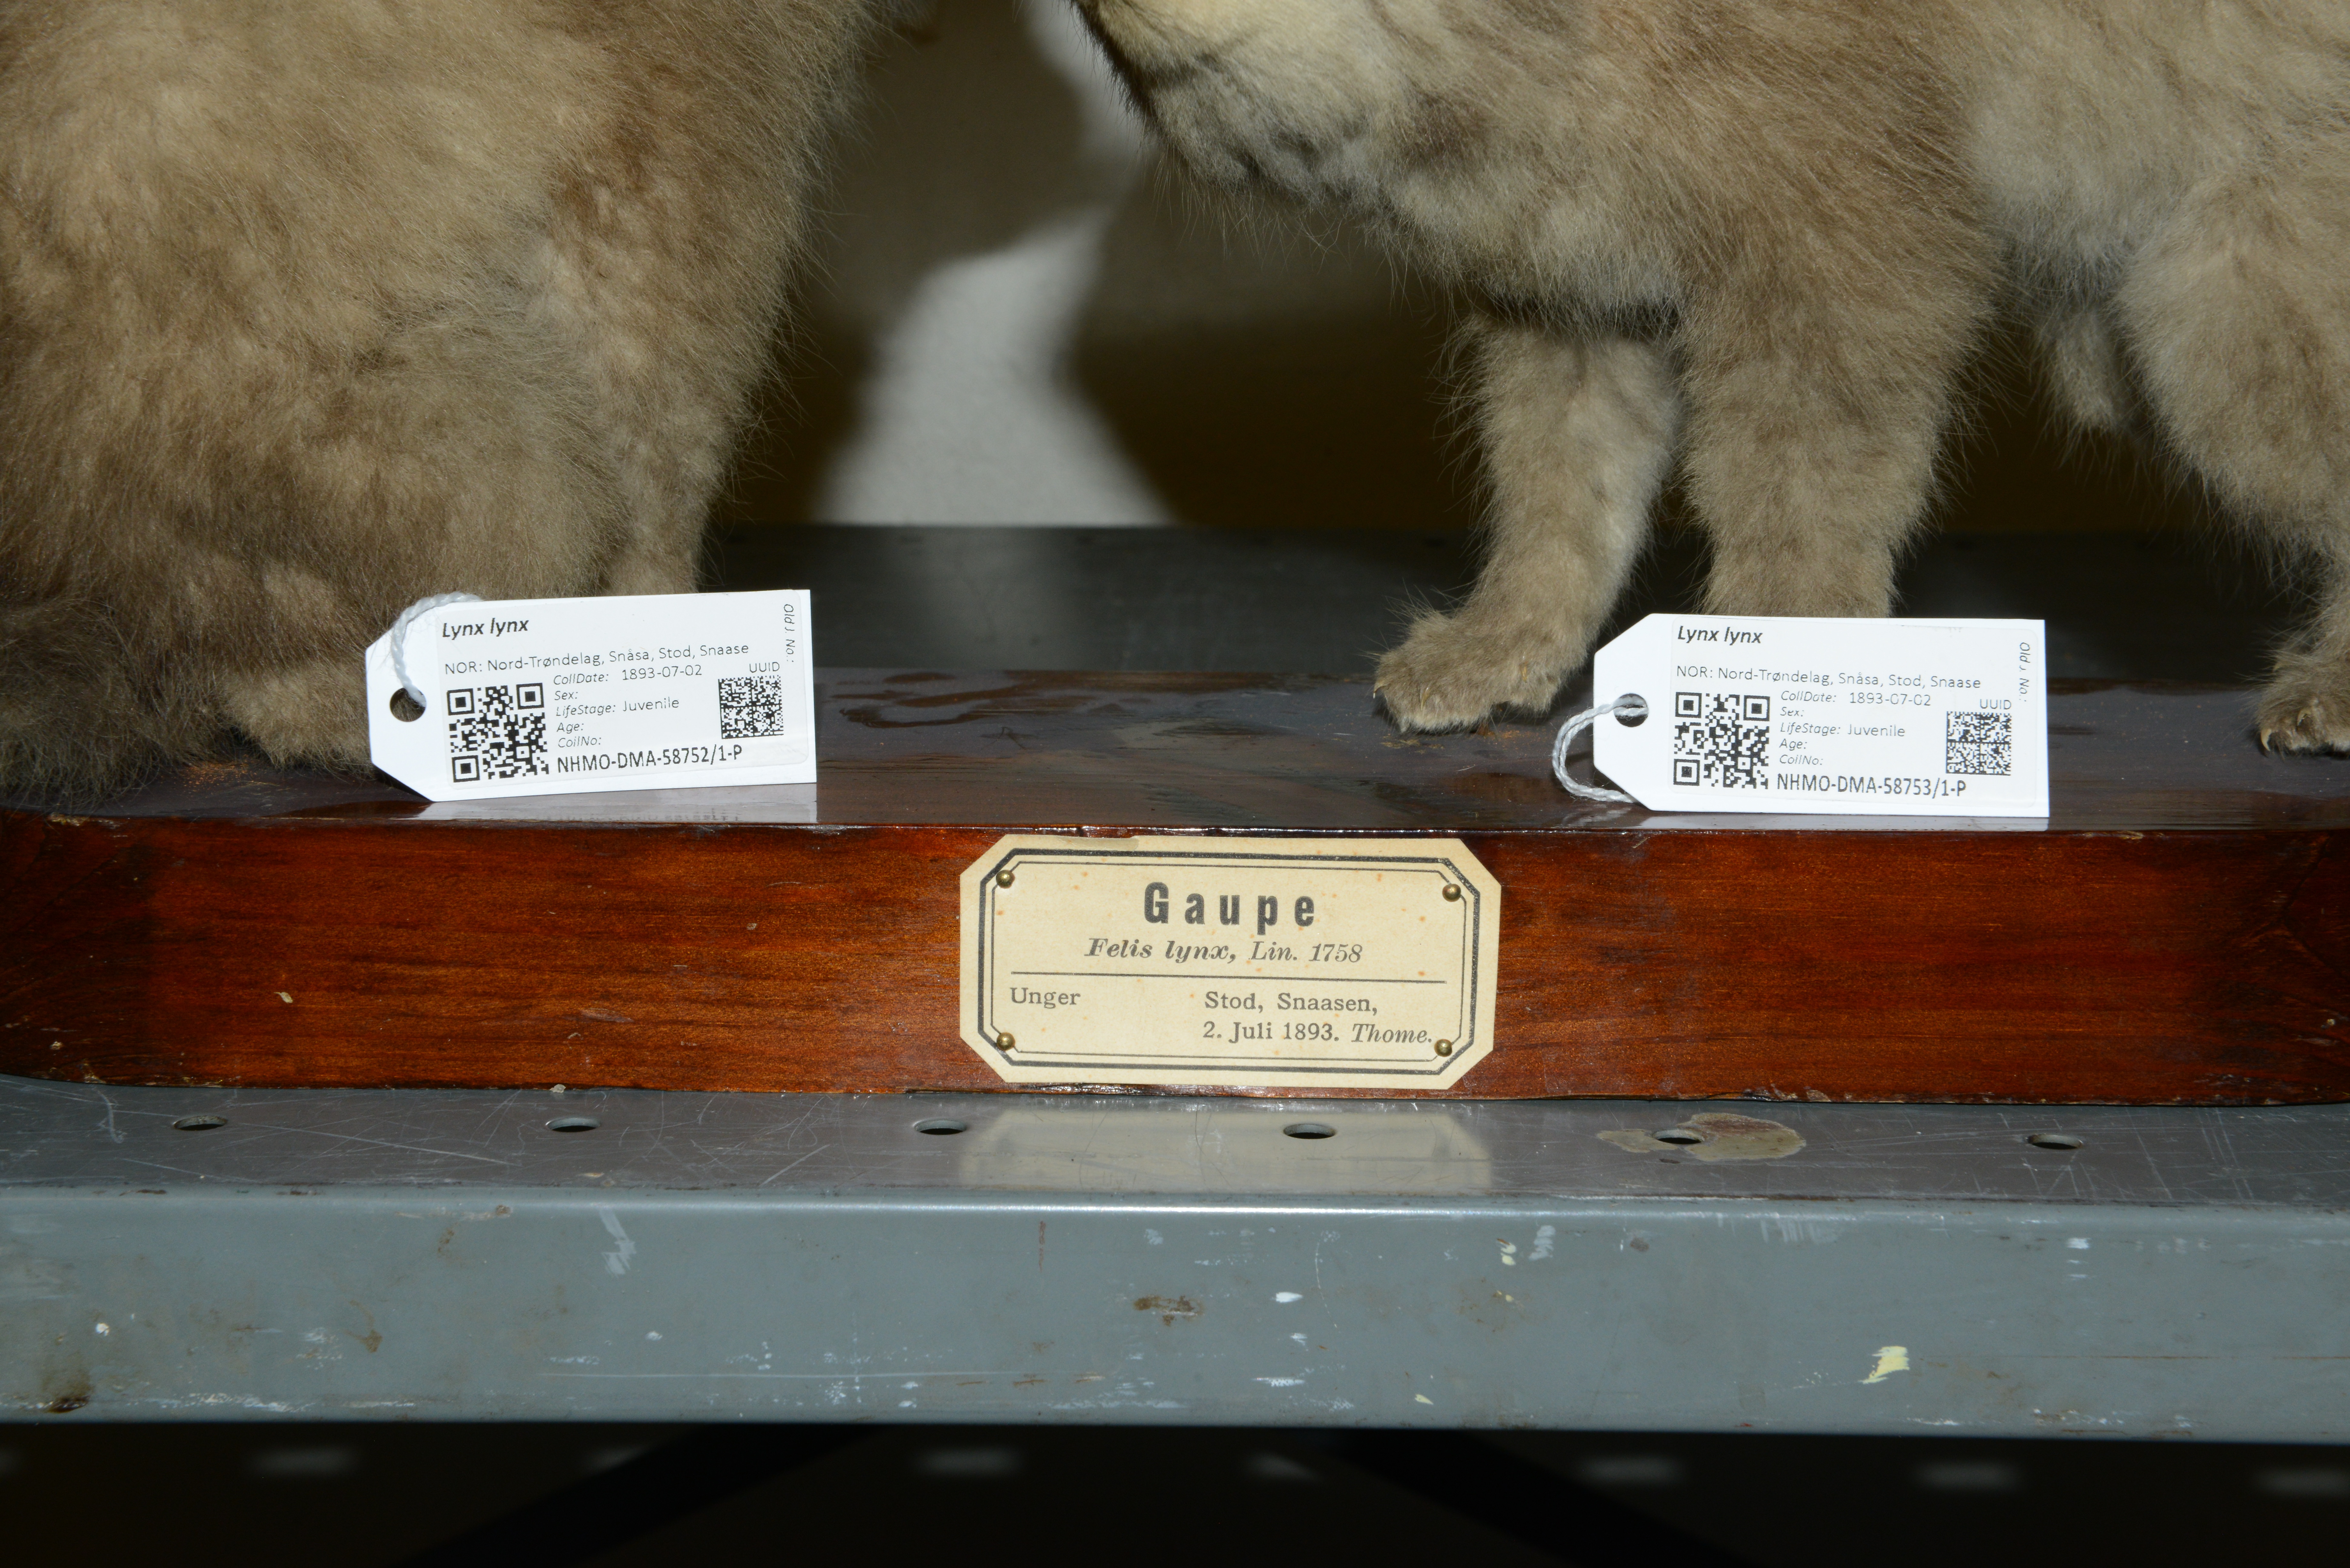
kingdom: Animalia
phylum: Chordata
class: Mammalia
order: Carnivora
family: Felidae
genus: Lynx
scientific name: Lynx lynx
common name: Eurasian lynx
